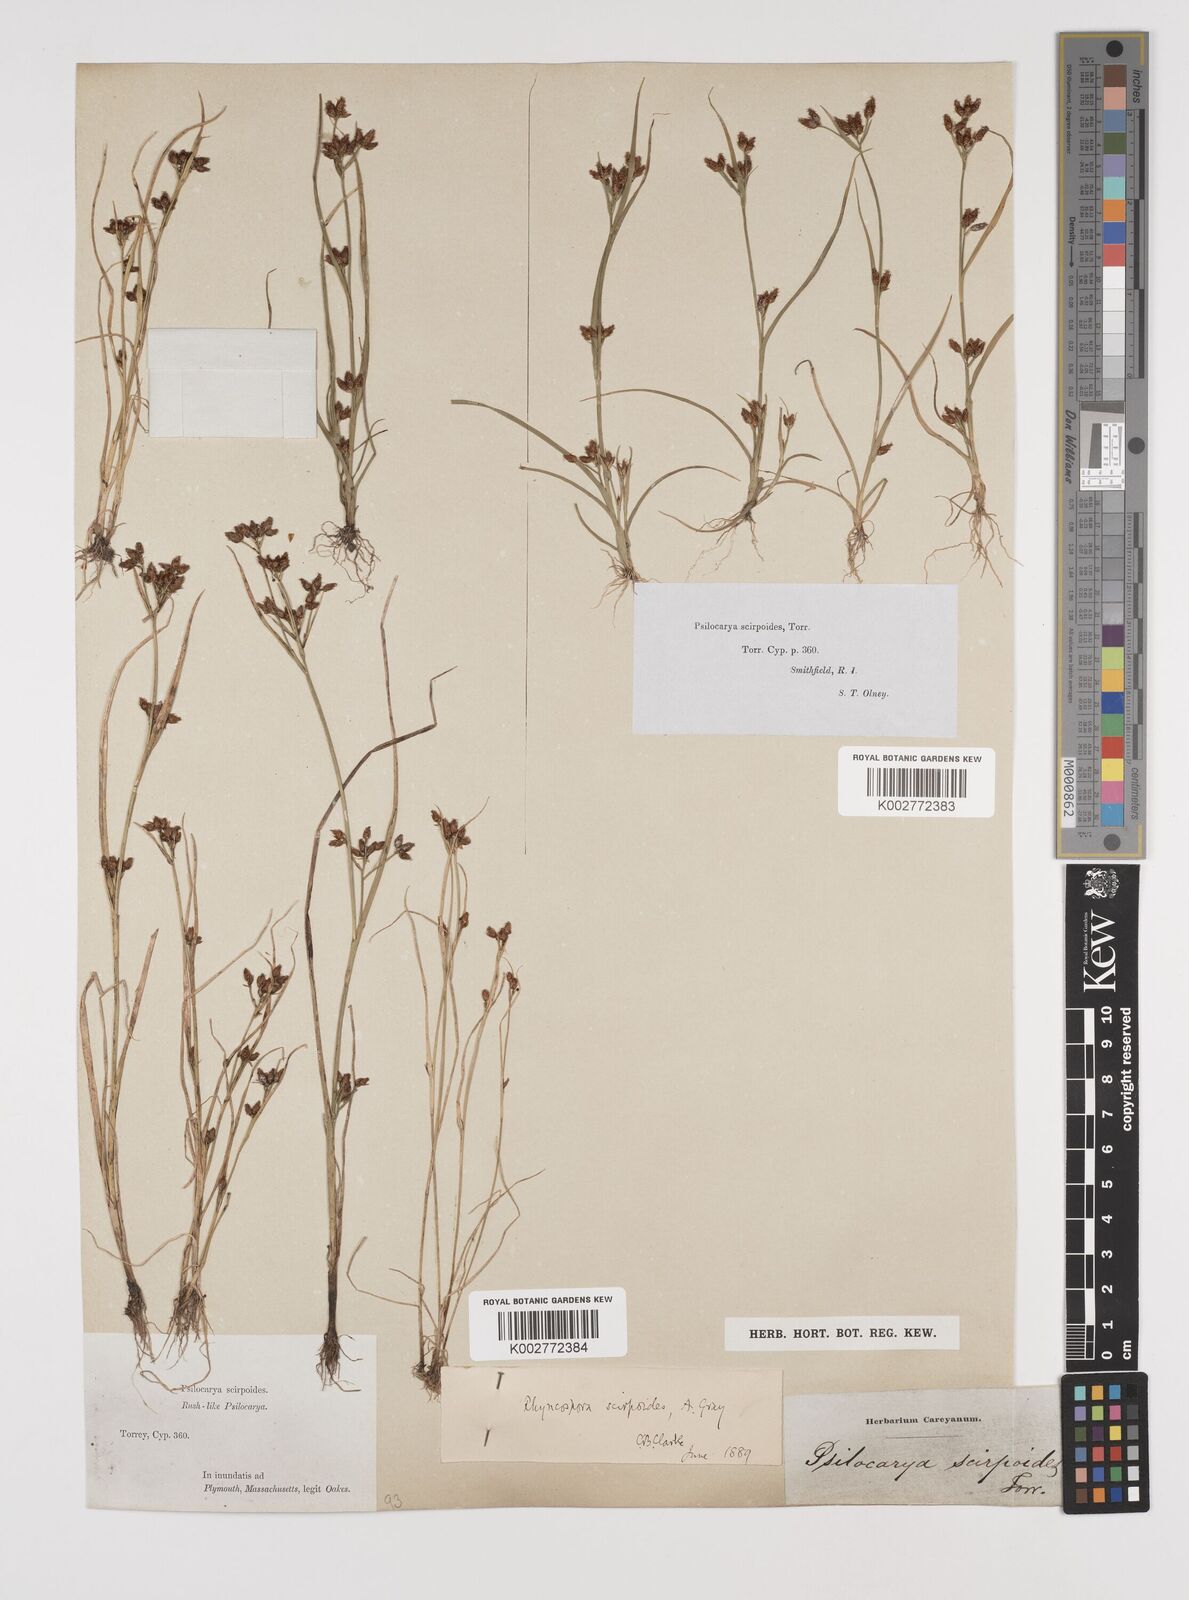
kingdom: Plantae
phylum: Tracheophyta
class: Liliopsida
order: Poales
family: Cyperaceae
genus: Rhynchospora
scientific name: Rhynchospora scirpoides
